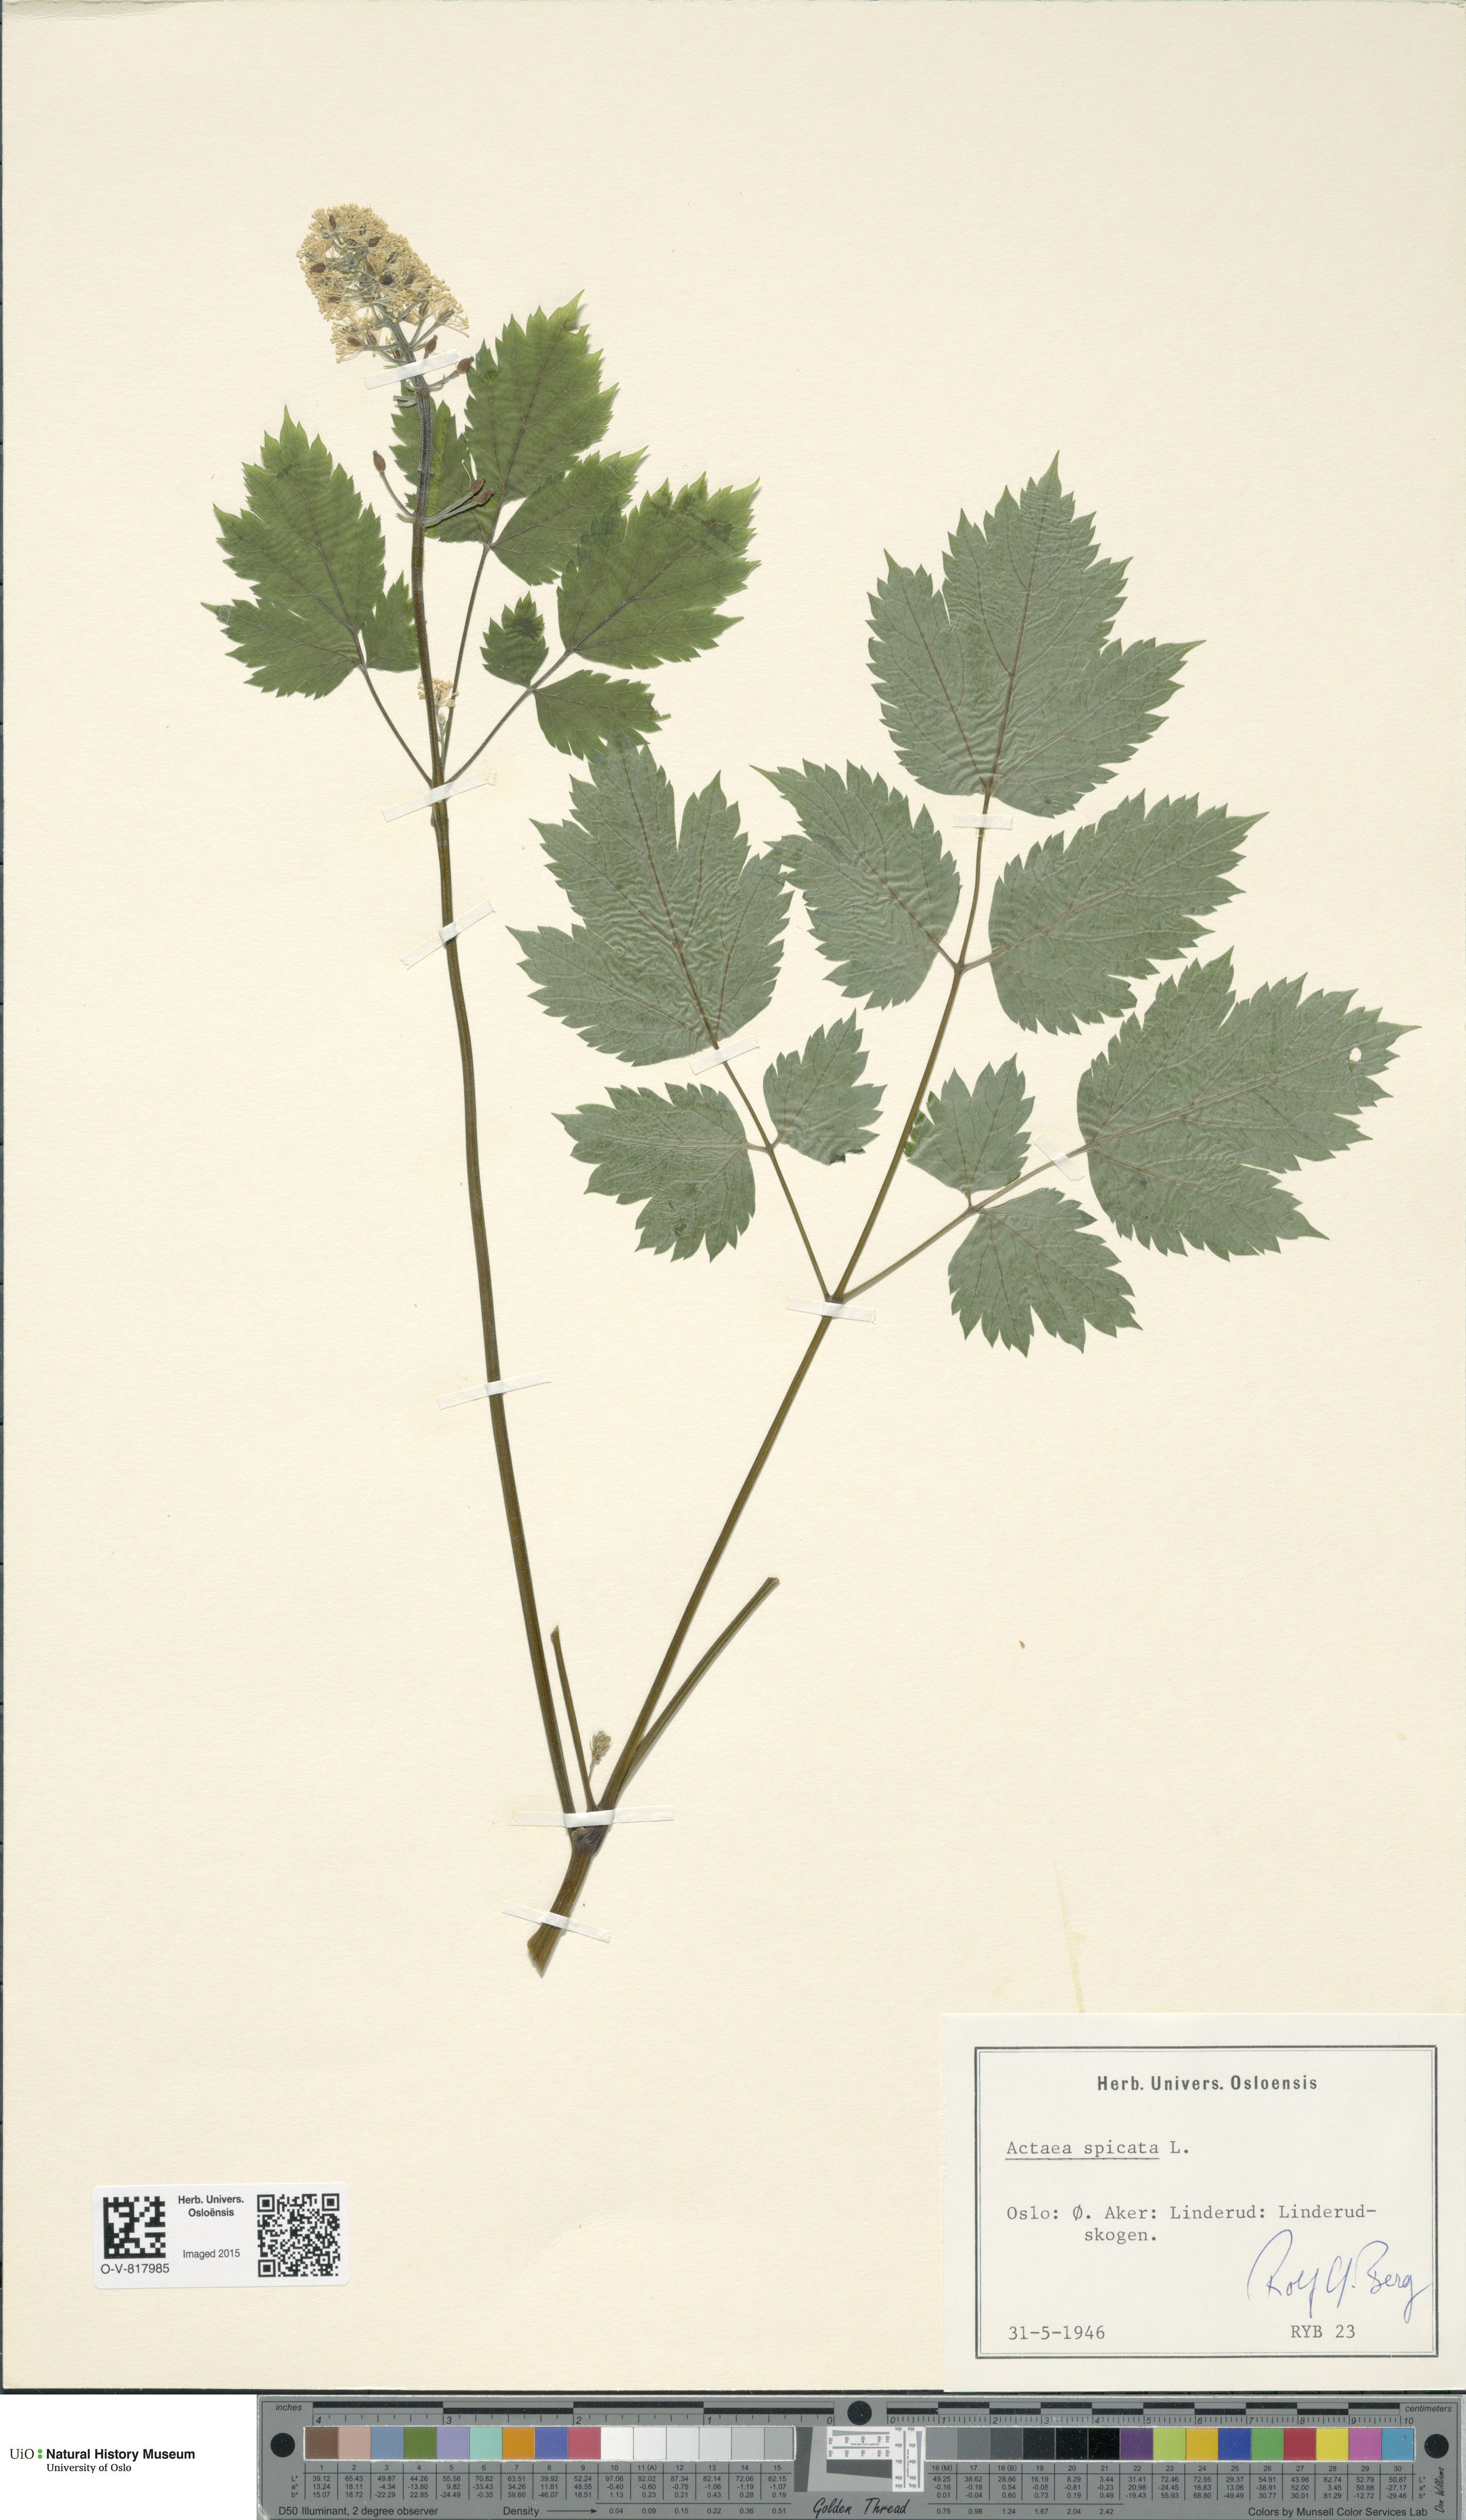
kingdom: Plantae
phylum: Tracheophyta
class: Magnoliopsida
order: Ranunculales
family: Ranunculaceae
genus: Actaea
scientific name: Actaea spicata
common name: Baneberry
